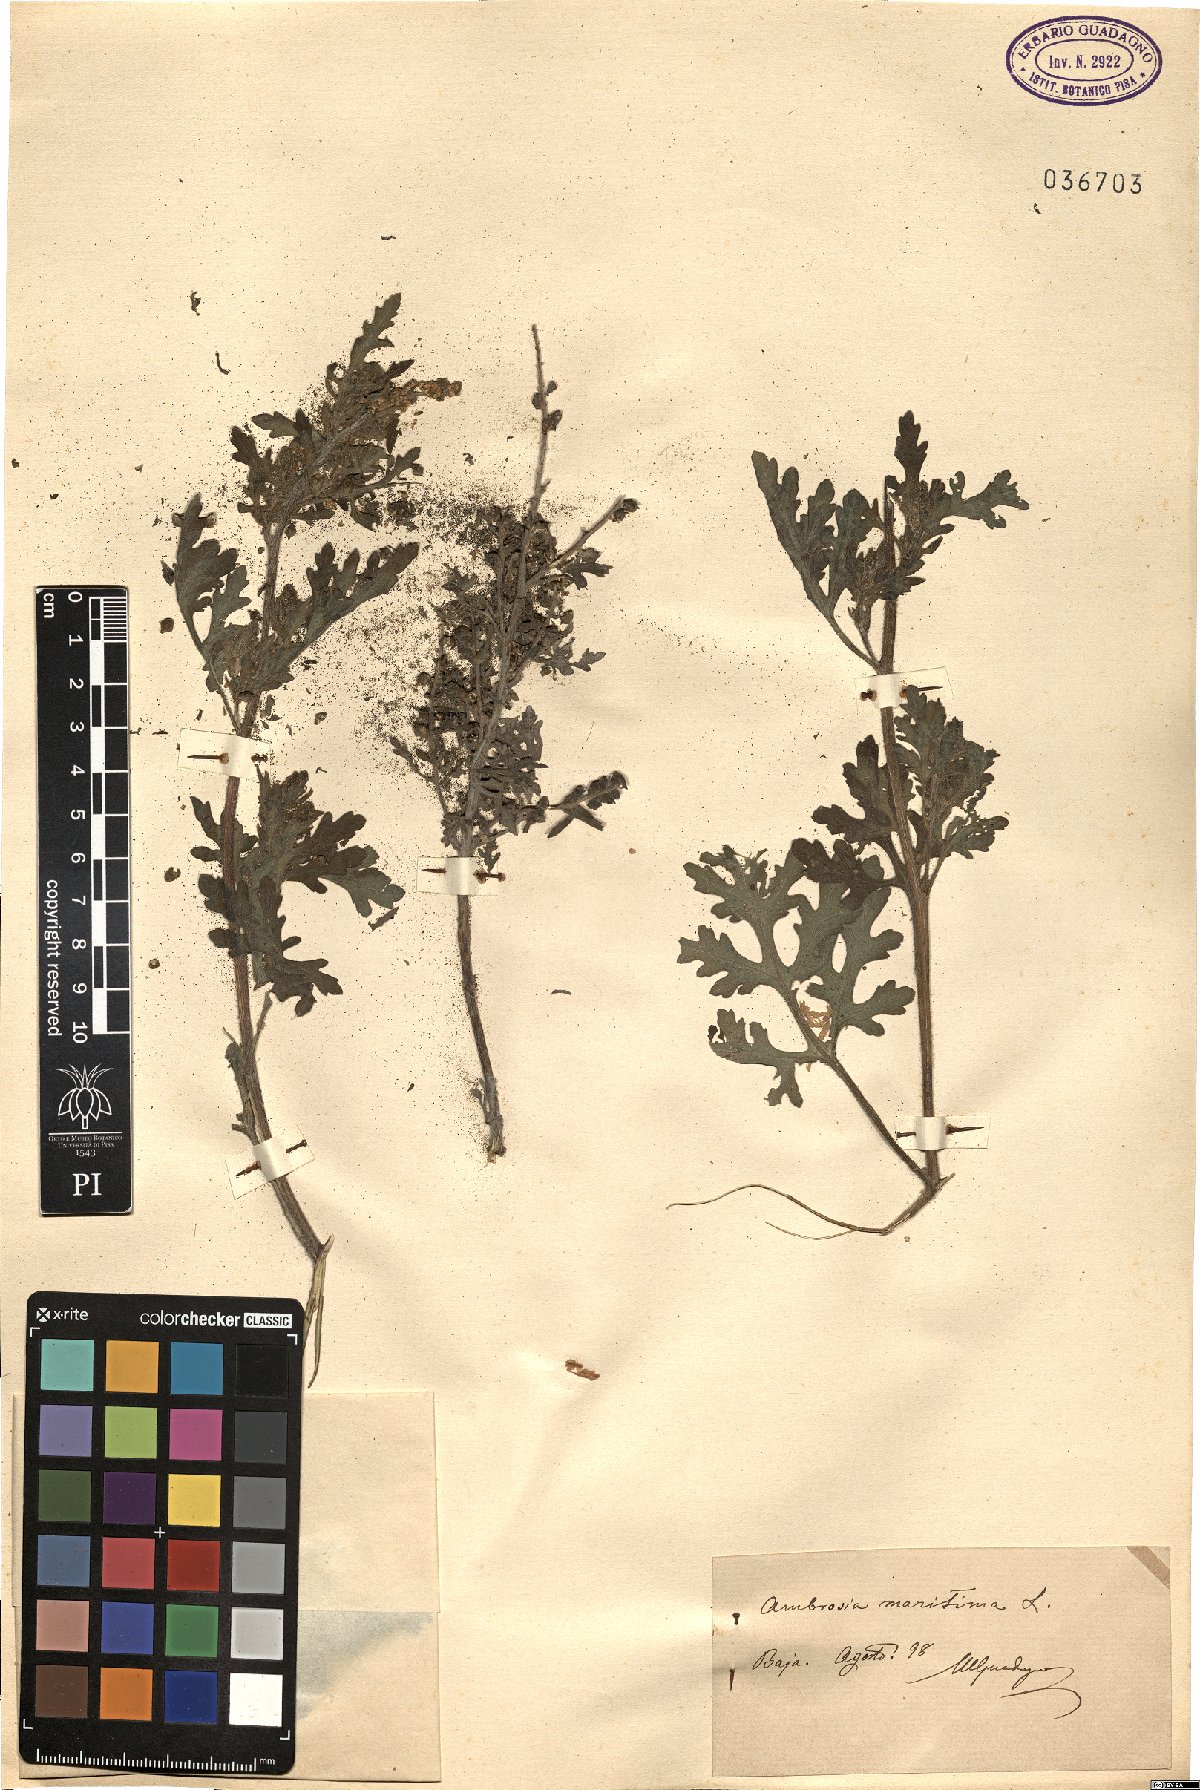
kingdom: Plantae
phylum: Tracheophyta
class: Magnoliopsida
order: Asterales
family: Asteraceae
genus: Ambrosia
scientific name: Ambrosia maritima
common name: Sea ambrosia
